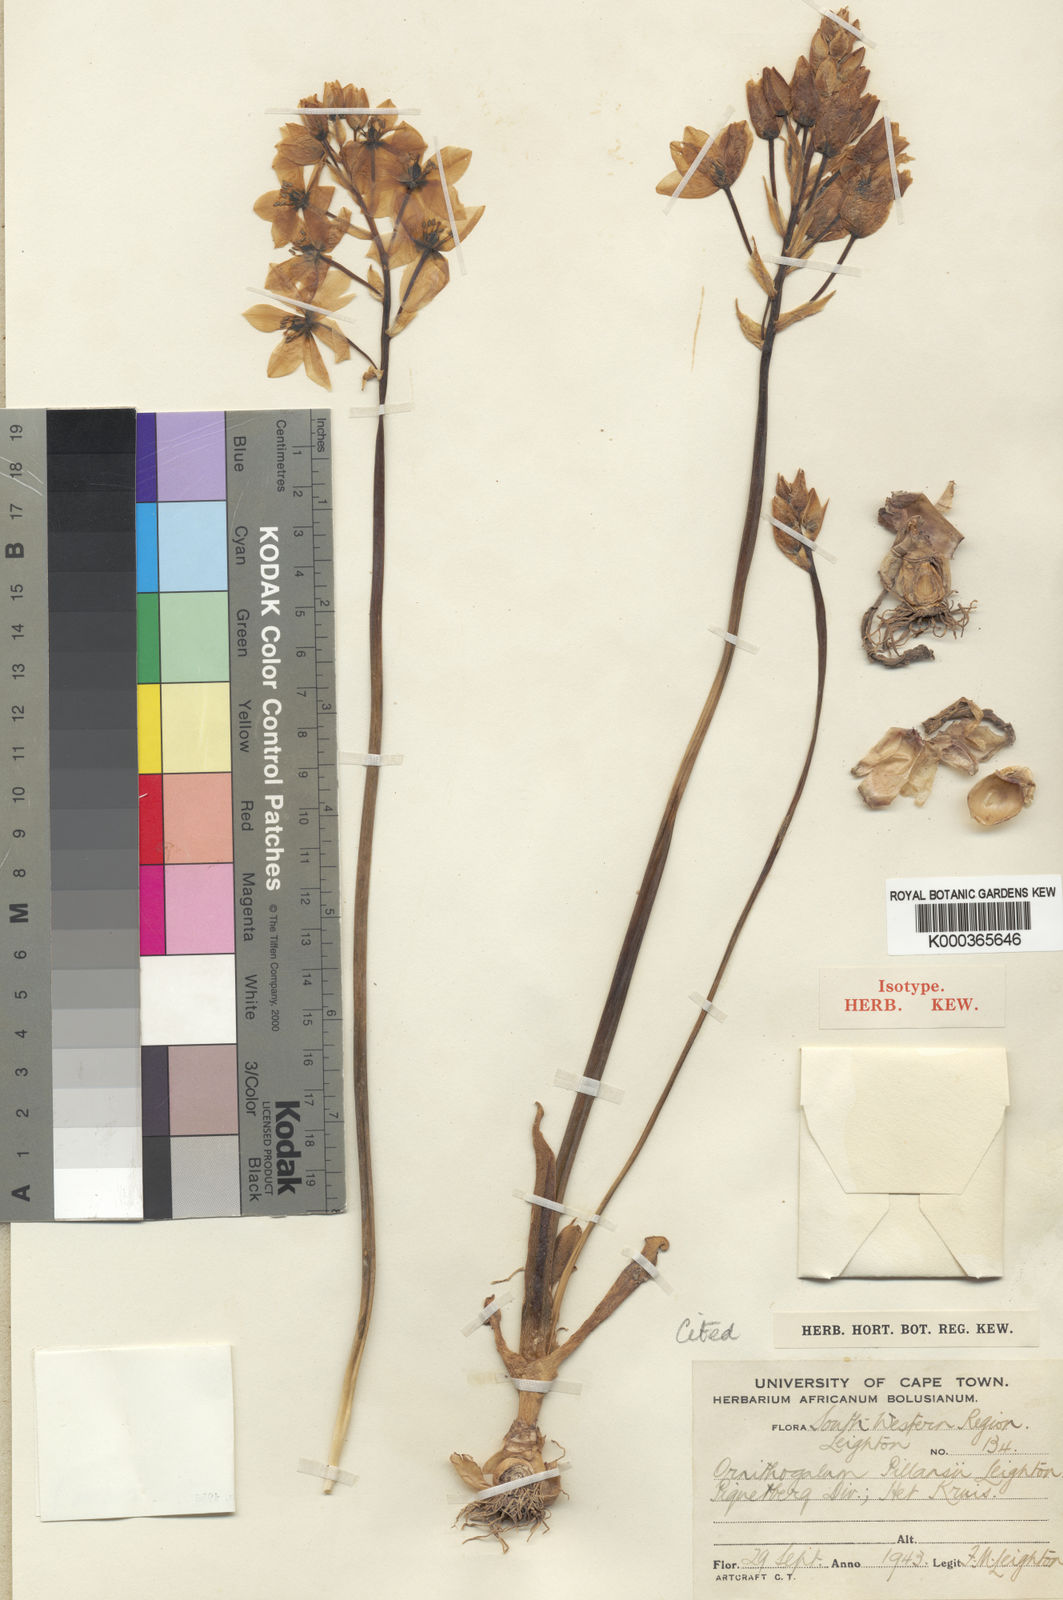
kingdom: Plantae
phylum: Tracheophyta
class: Liliopsida
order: Asparagales
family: Asparagaceae
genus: Ornithogalum
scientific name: Ornithogalum dubium
